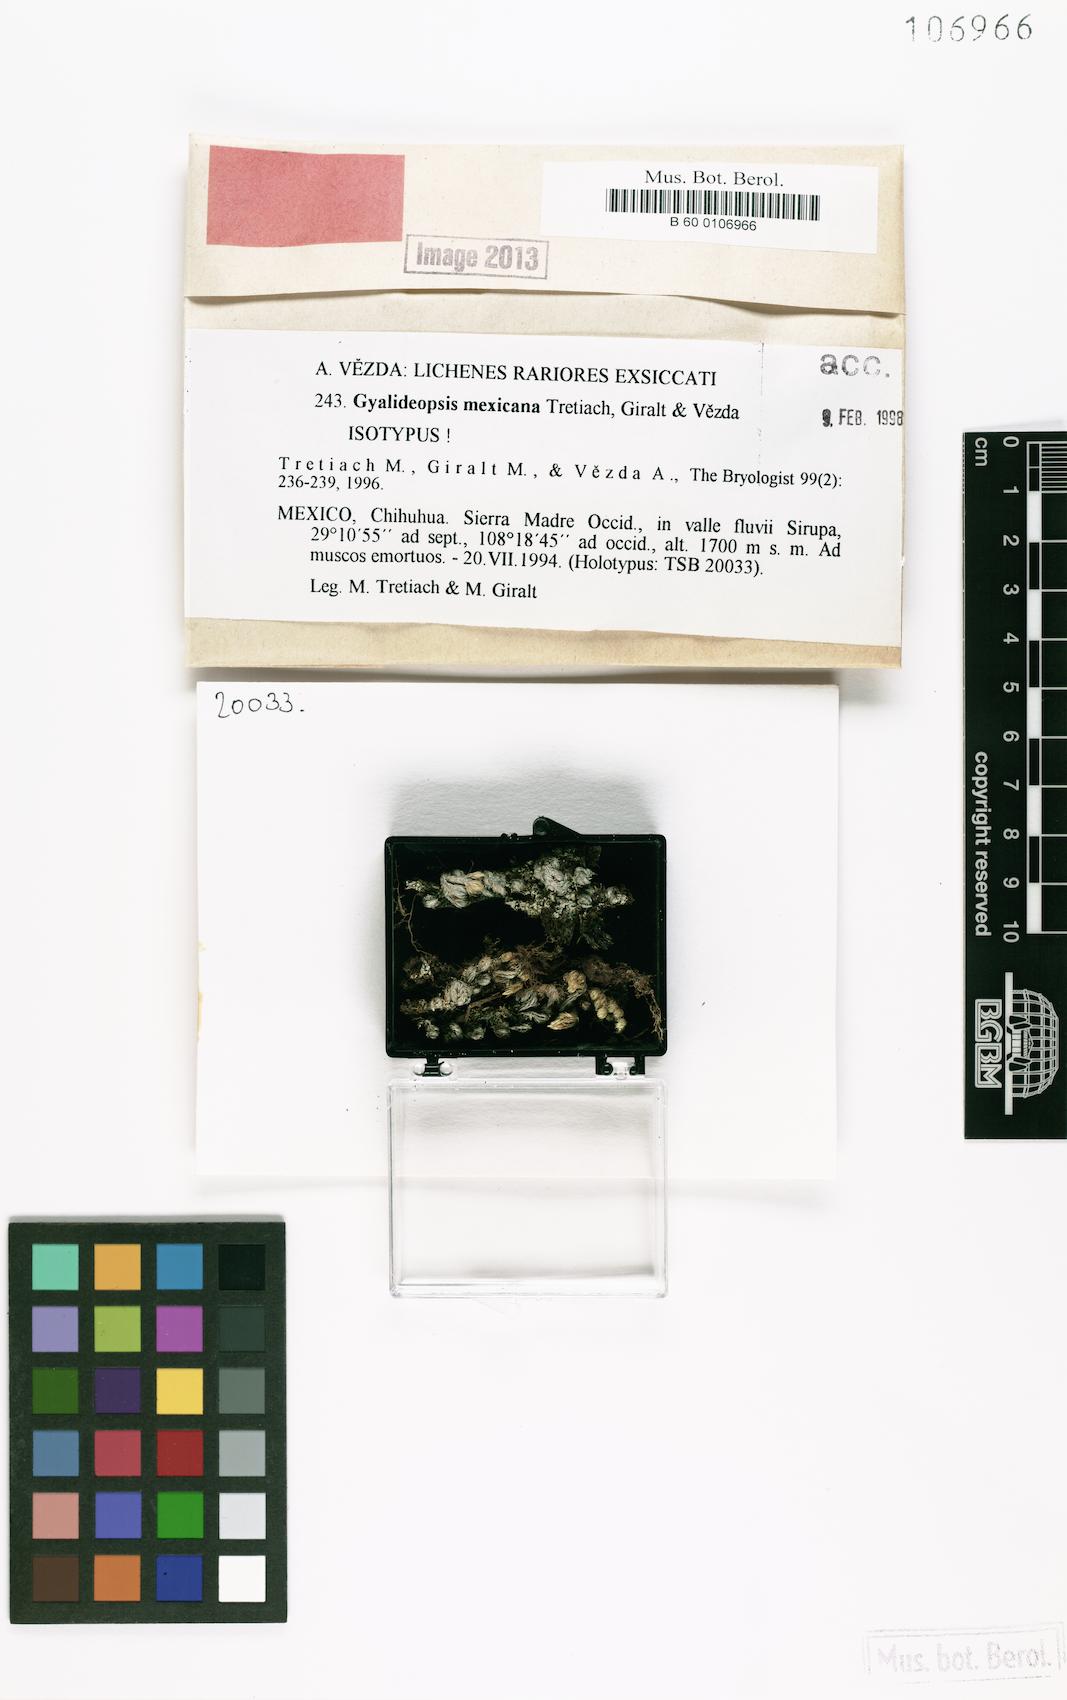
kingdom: Fungi
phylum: Ascomycota
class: Lecanoromycetes
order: Ostropales
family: Gomphillaceae
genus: Gyalideopsis
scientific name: Gyalideopsis
